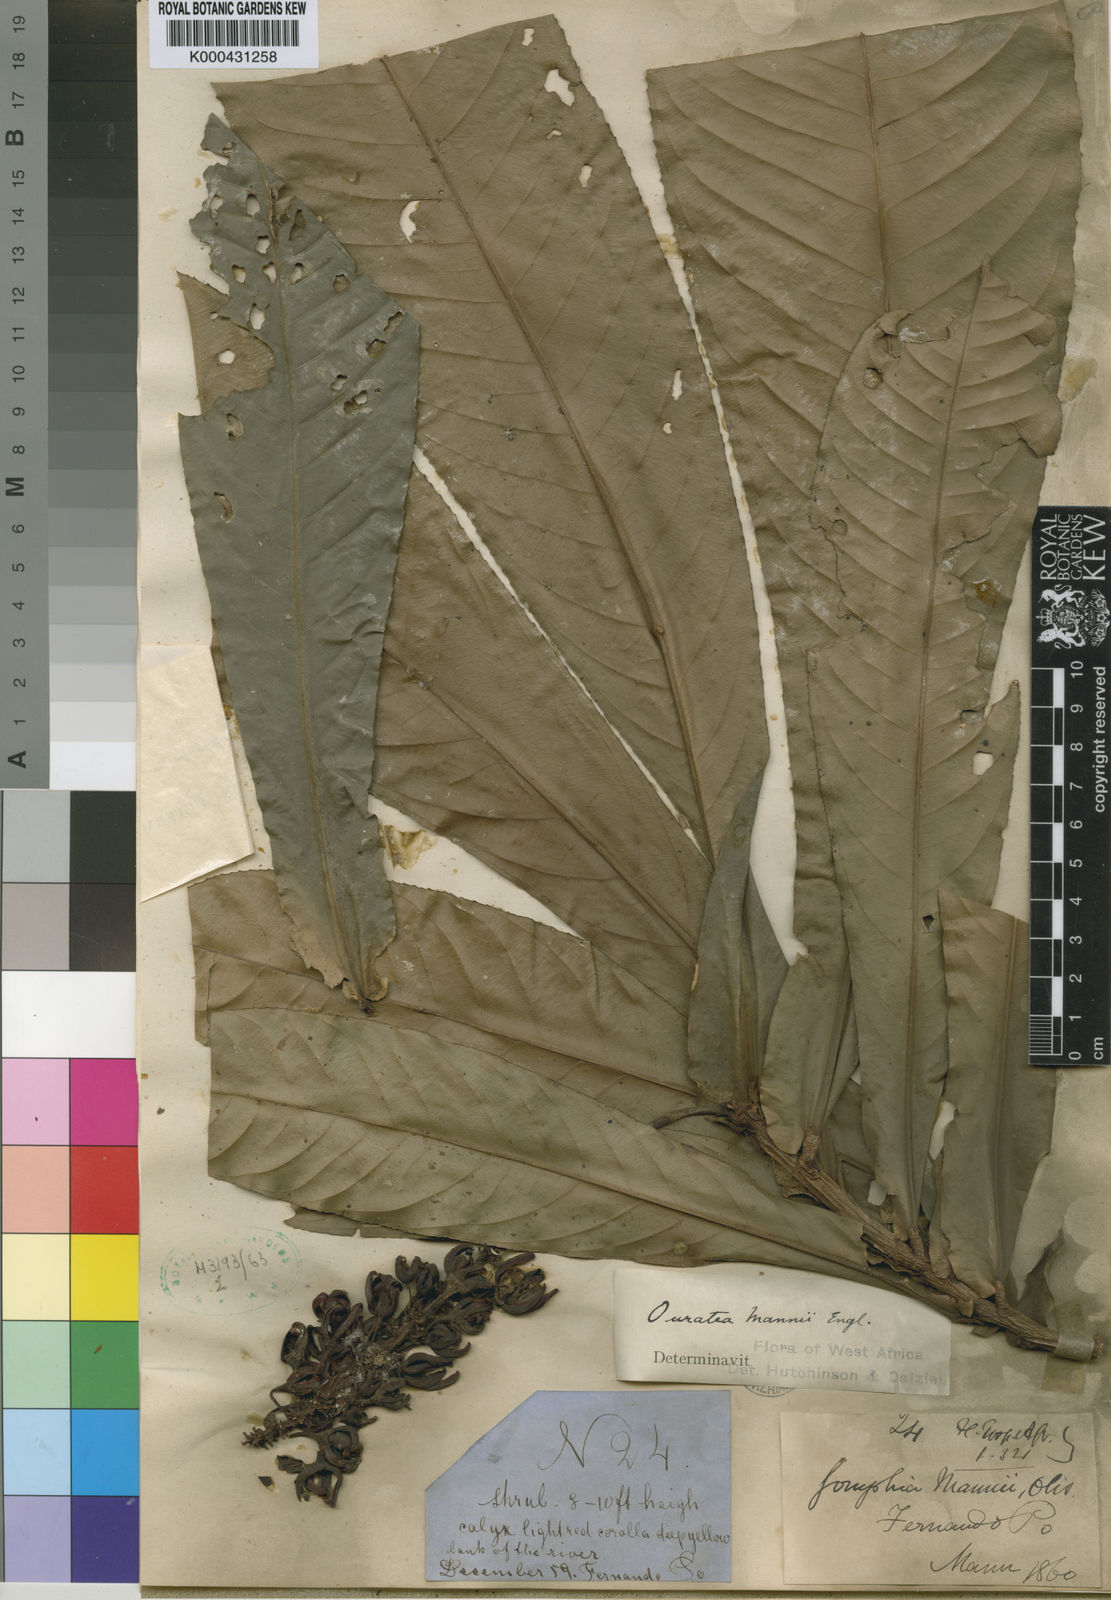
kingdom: Plantae
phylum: Tracheophyta
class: Magnoliopsida
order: Malpighiales
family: Ochnaceae
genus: Campylospermum
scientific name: Campylospermum mannii
